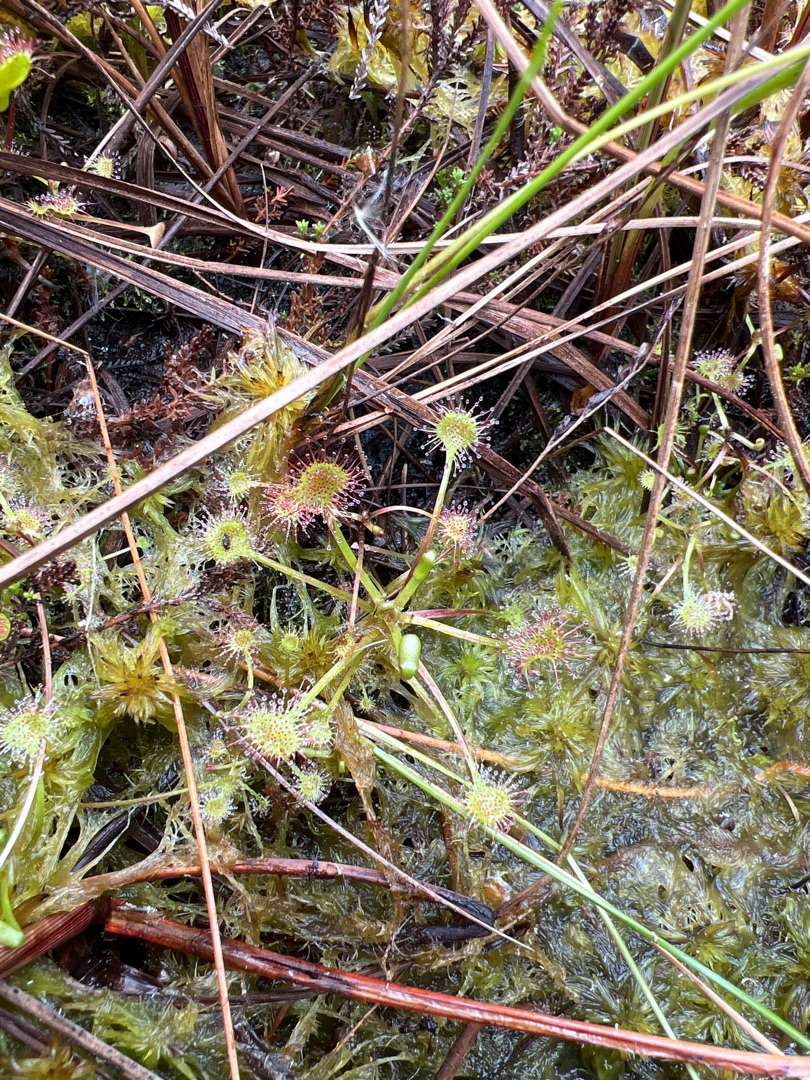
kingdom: Plantae
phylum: Tracheophyta
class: Magnoliopsida
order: Caryophyllales
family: Droseraceae
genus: Drosera
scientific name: Drosera rotundifolia
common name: Rundbladet soldug
